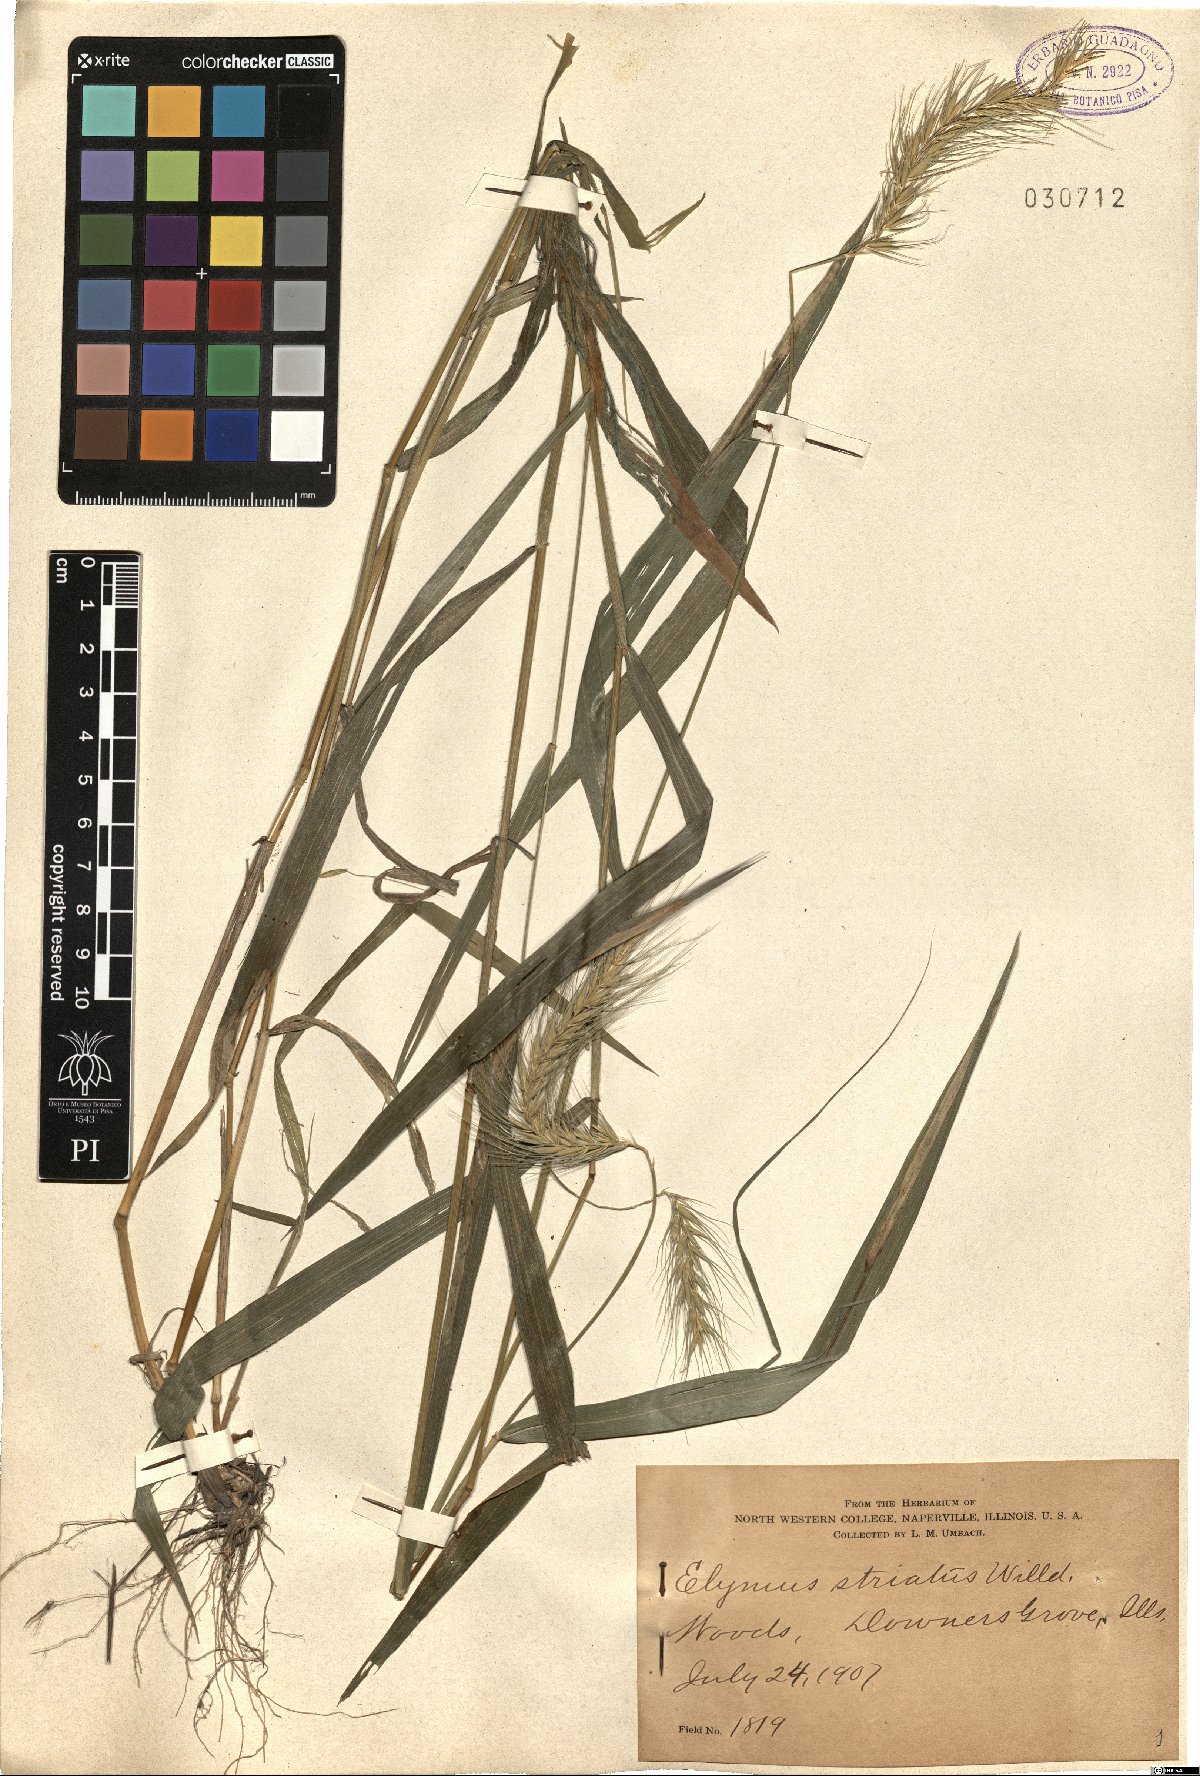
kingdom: Plantae
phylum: Tracheophyta
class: Liliopsida
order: Poales
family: Poaceae
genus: Elymus
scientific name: Elymus virginicus
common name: Common eastern wildrye
